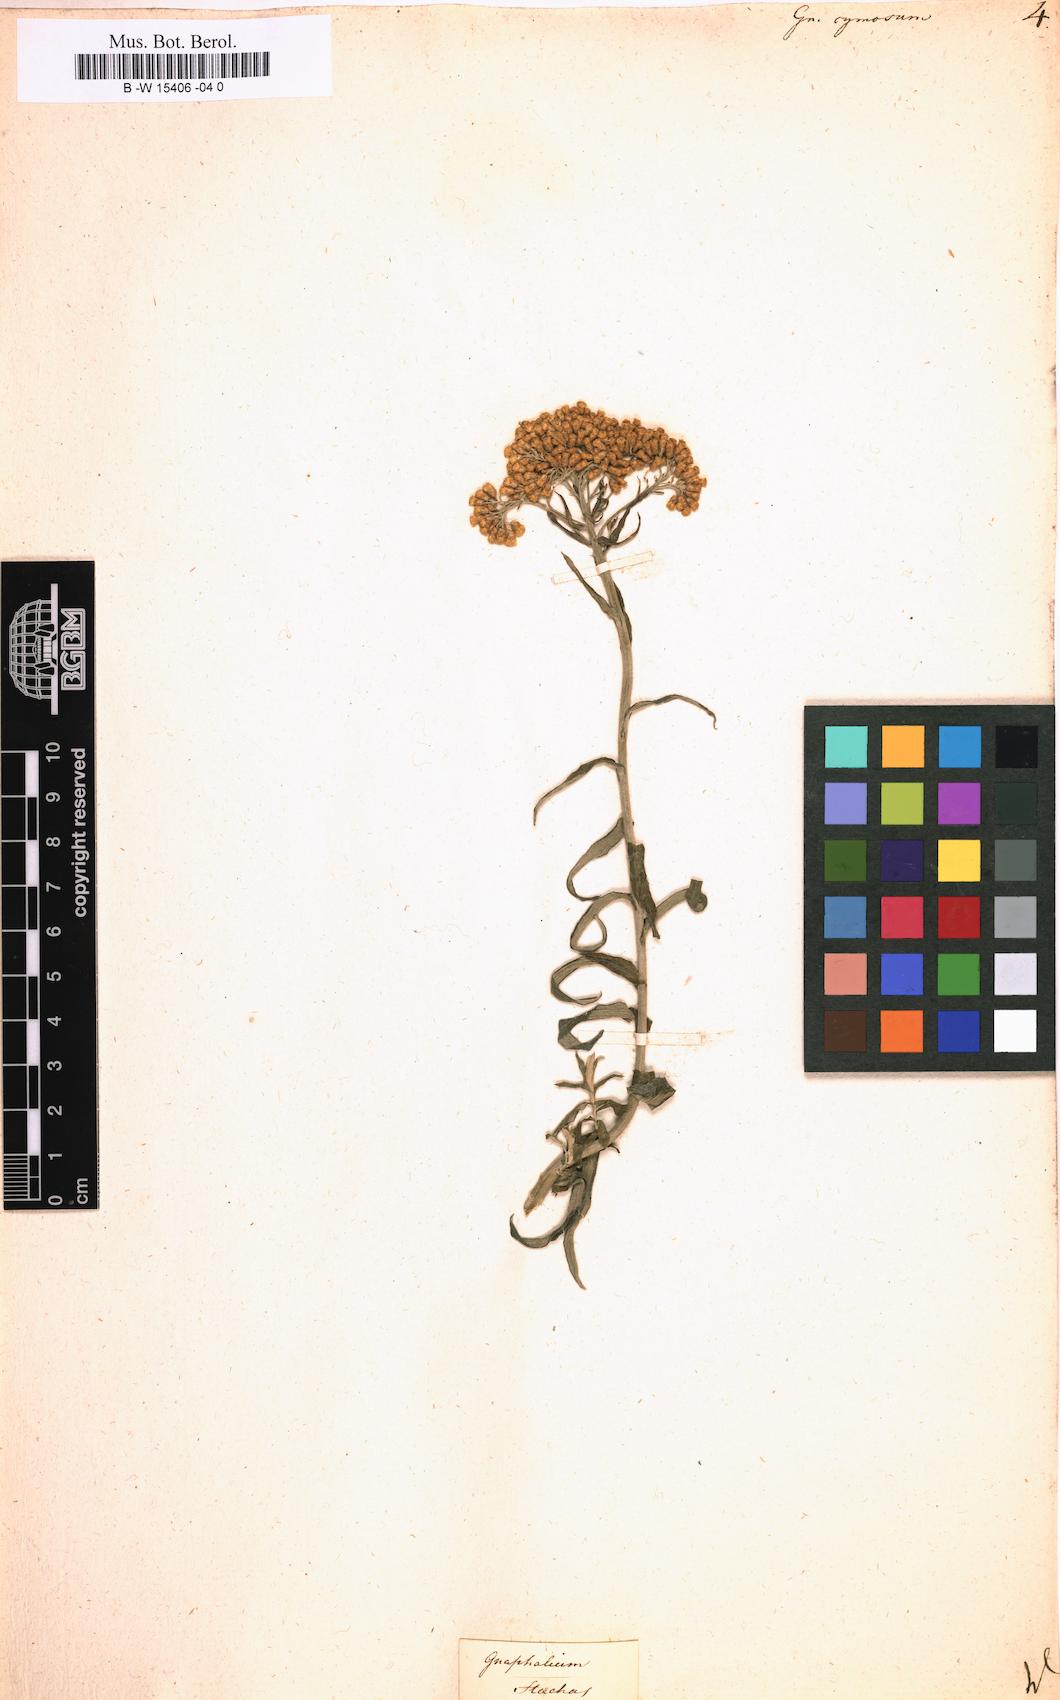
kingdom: Plantae
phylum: Tracheophyta
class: Magnoliopsida
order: Asterales
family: Asteraceae
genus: Helichrysum
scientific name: Helichrysum cymosum
